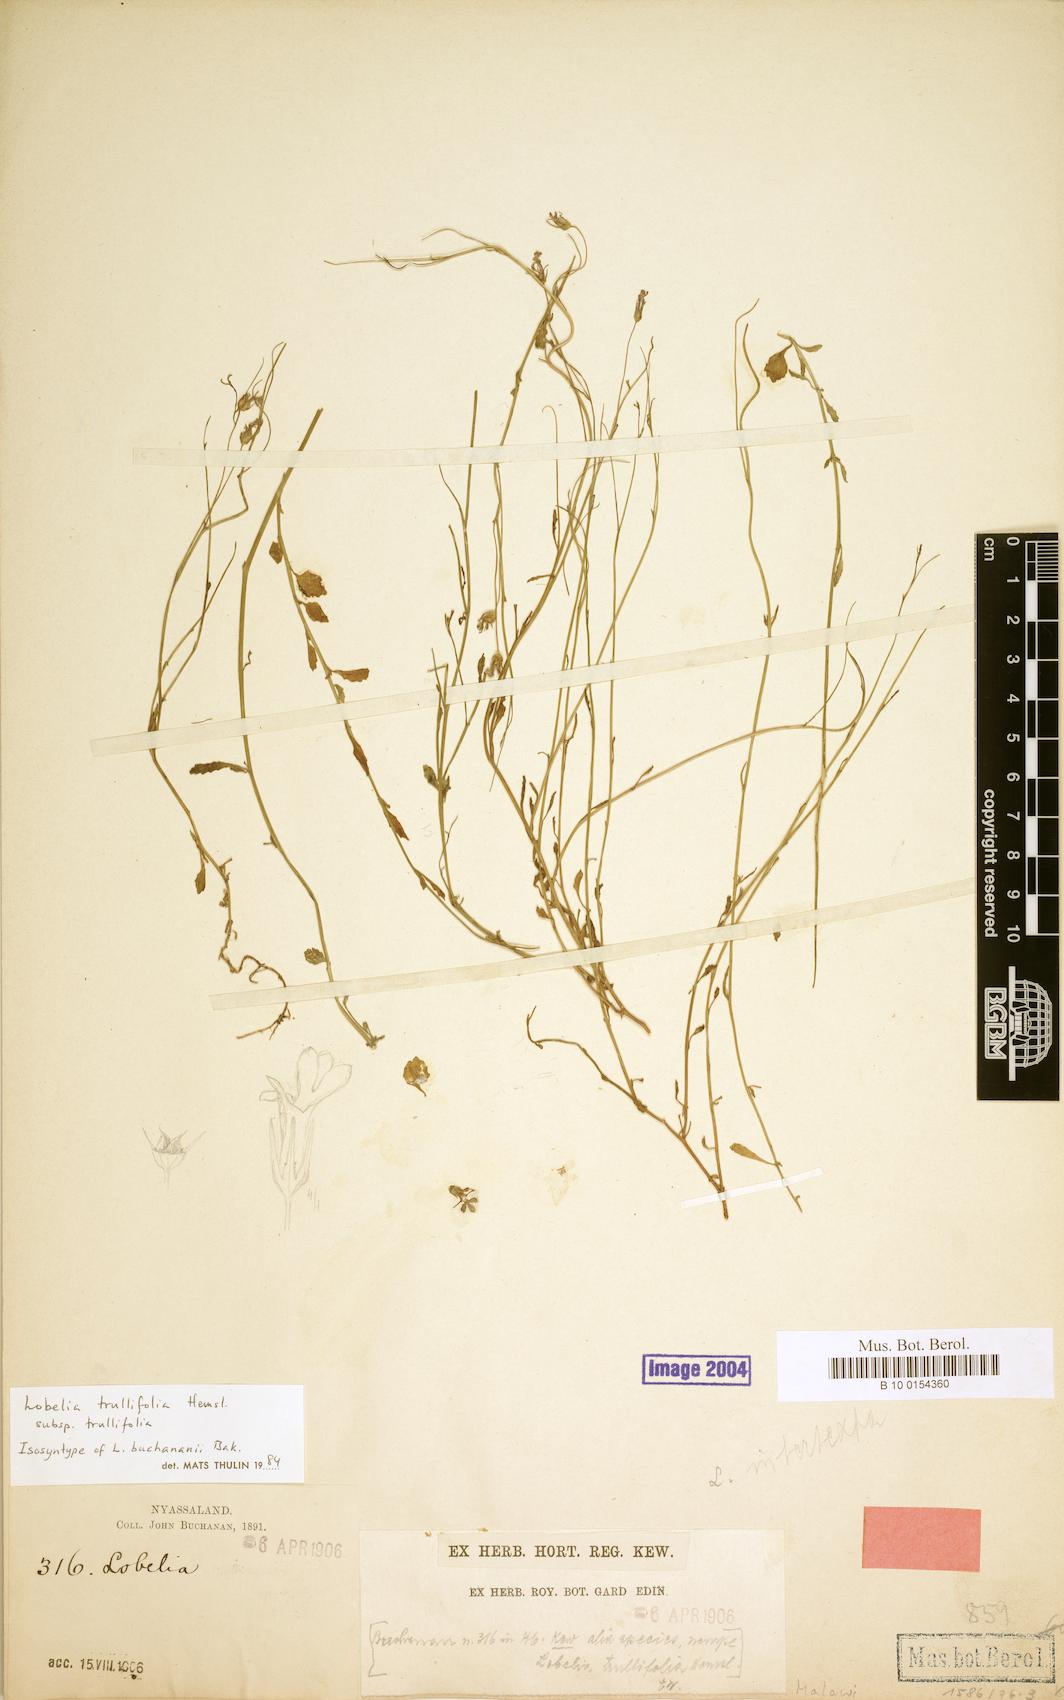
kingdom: Plantae
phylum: Tracheophyta
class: Magnoliopsida
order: Asterales
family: Campanulaceae
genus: Lobelia
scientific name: Lobelia trullifolia
